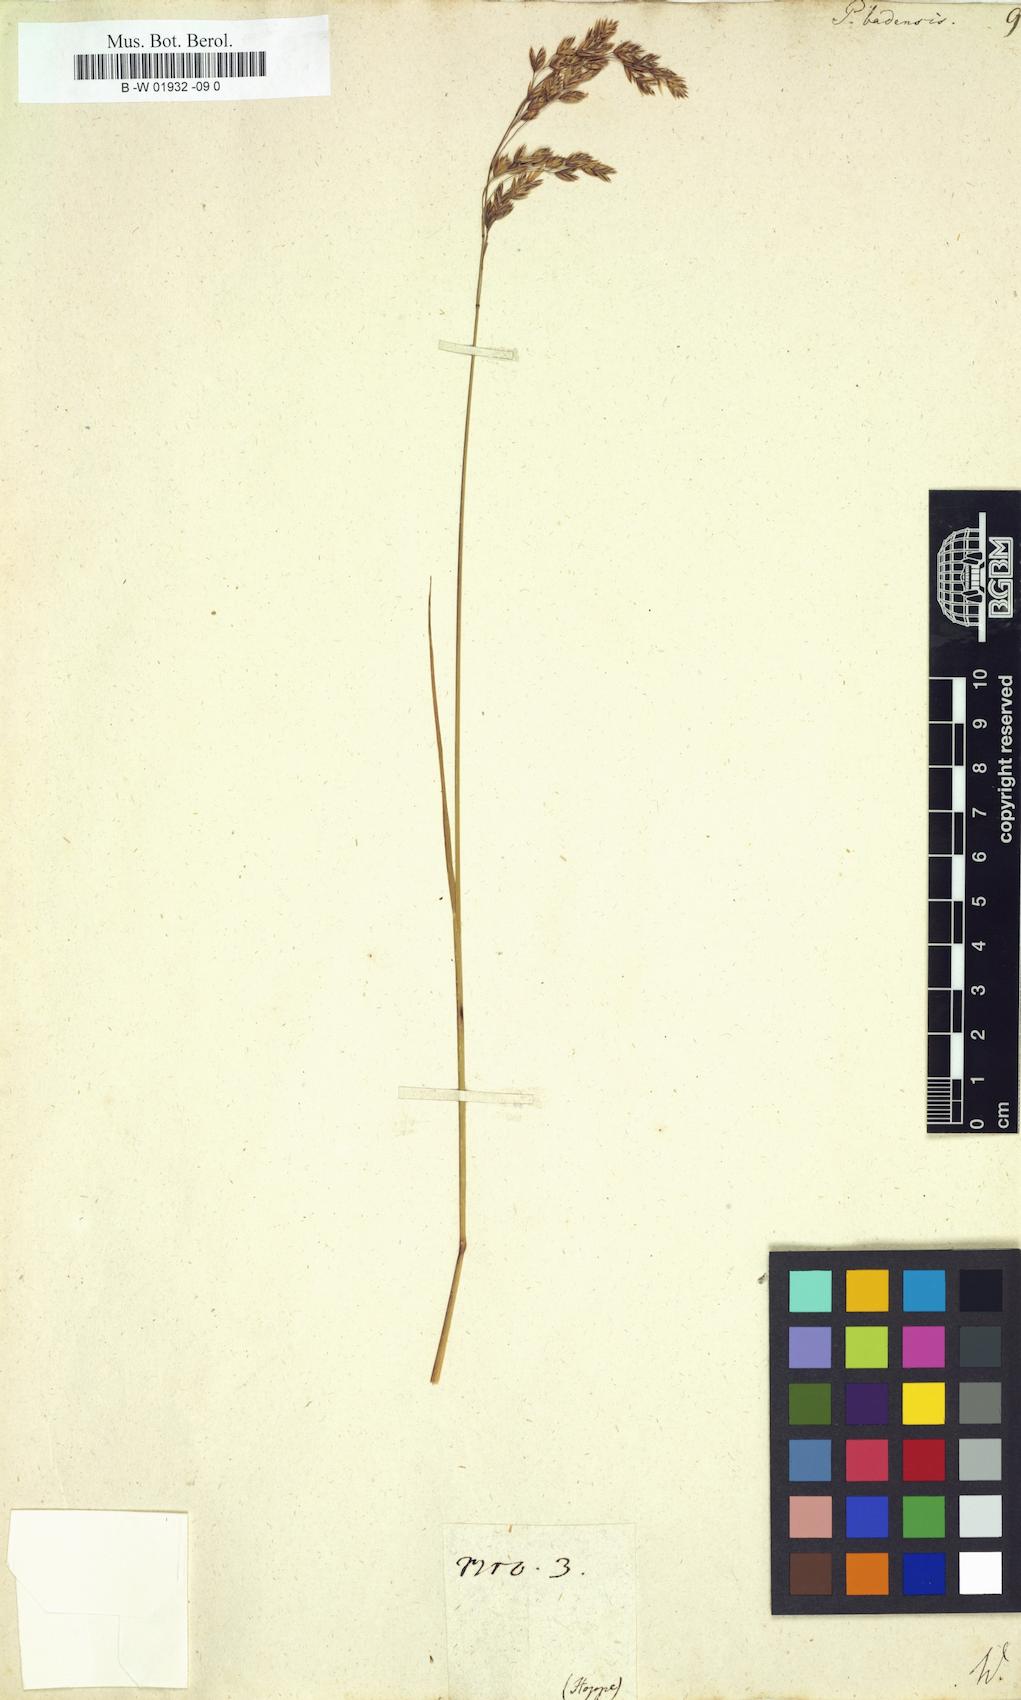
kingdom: Plantae
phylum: Tracheophyta
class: Liliopsida
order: Poales
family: Poaceae
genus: Poa
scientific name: Poa badensis
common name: Baden's bluegrass
